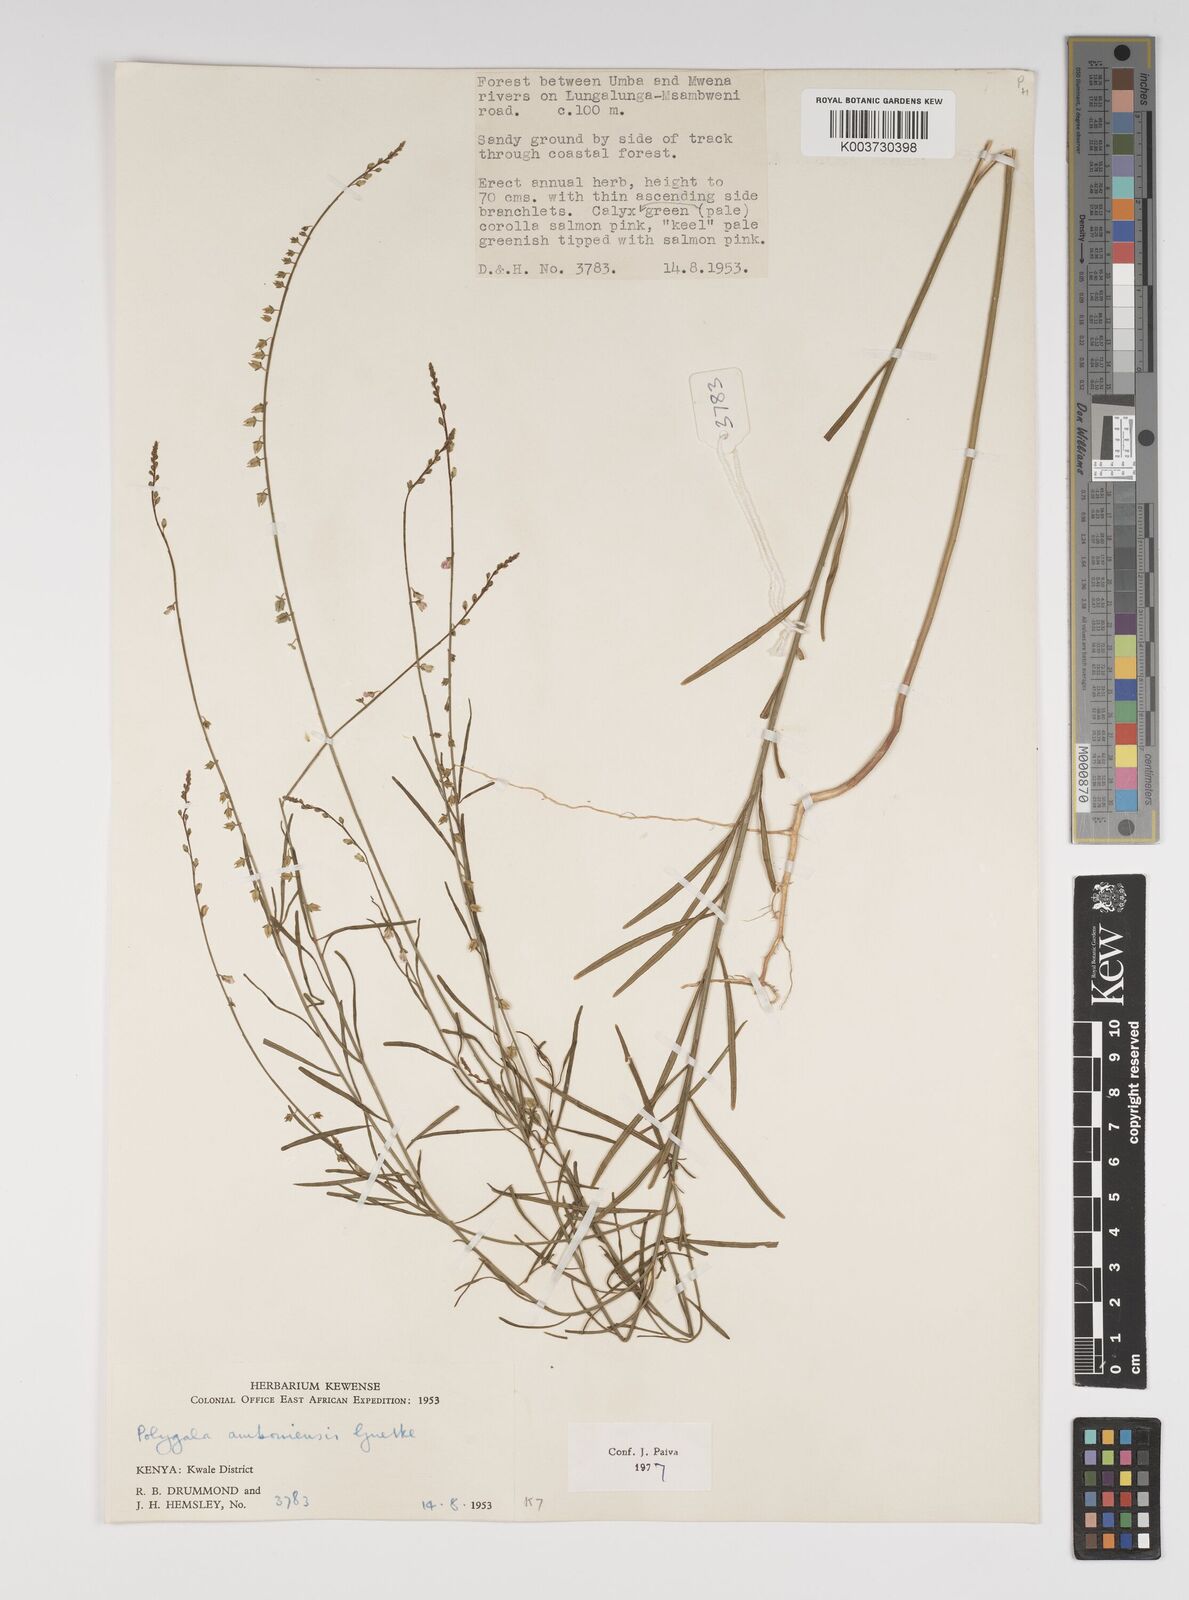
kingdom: Plantae
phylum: Tracheophyta
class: Magnoliopsida
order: Fabales
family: Polygalaceae
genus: Polygala
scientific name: Polygala amboniensis
